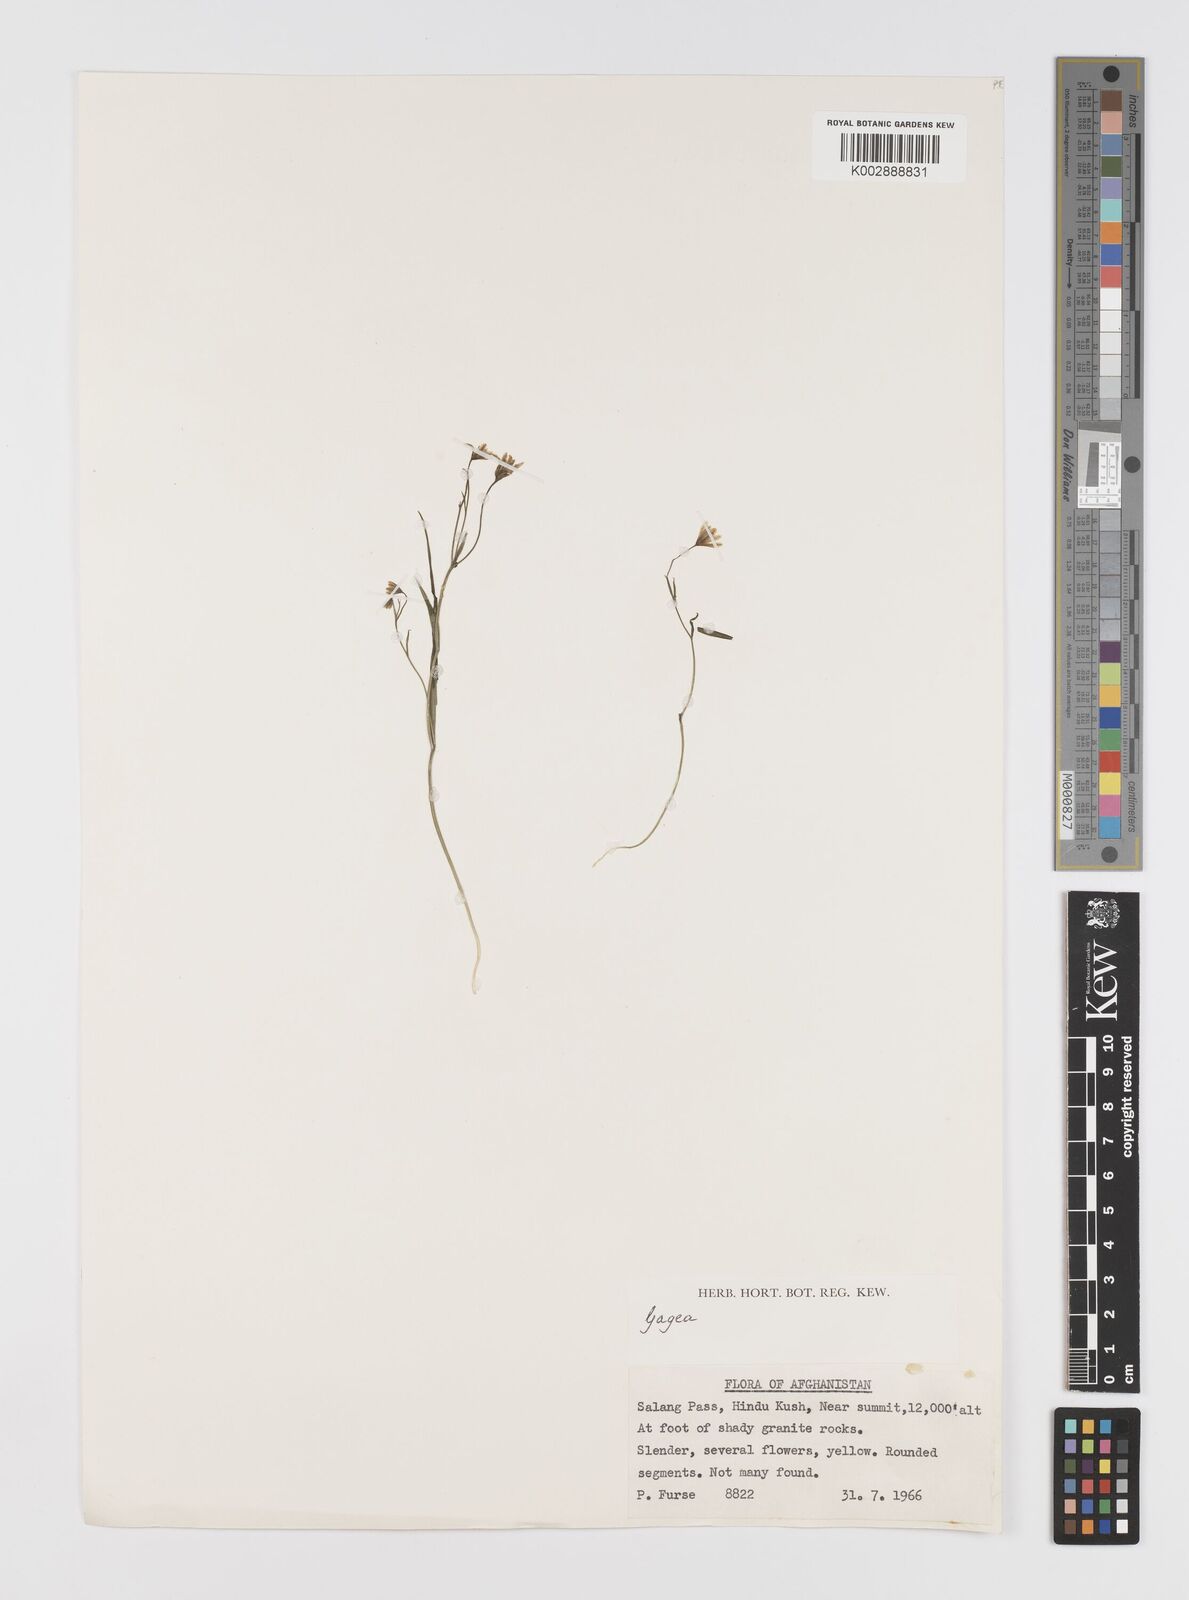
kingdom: Plantae
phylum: Tracheophyta
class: Liliopsida
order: Liliales
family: Liliaceae
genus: Gagea
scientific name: Gagea
